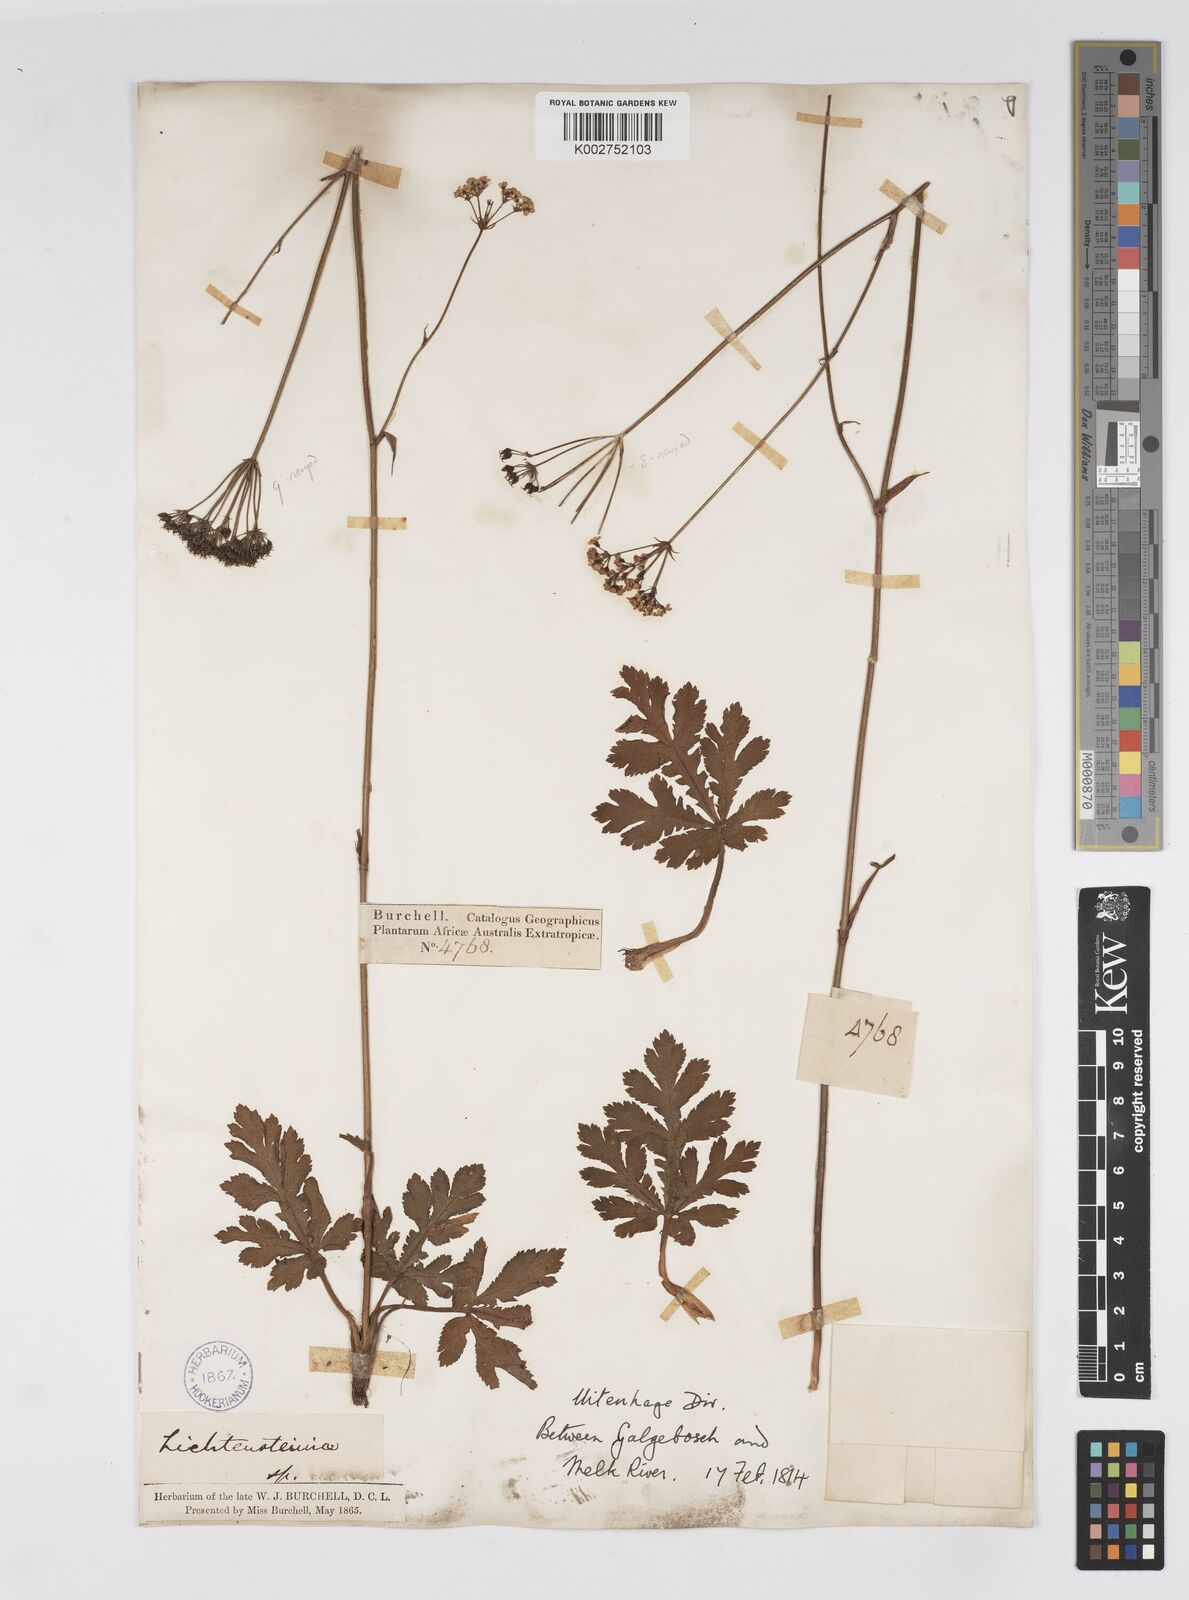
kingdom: Plantae
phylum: Tracheophyta
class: Magnoliopsida
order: Apiales
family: Apiaceae
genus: Lichtensteinia
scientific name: Lichtensteinia interrupta
